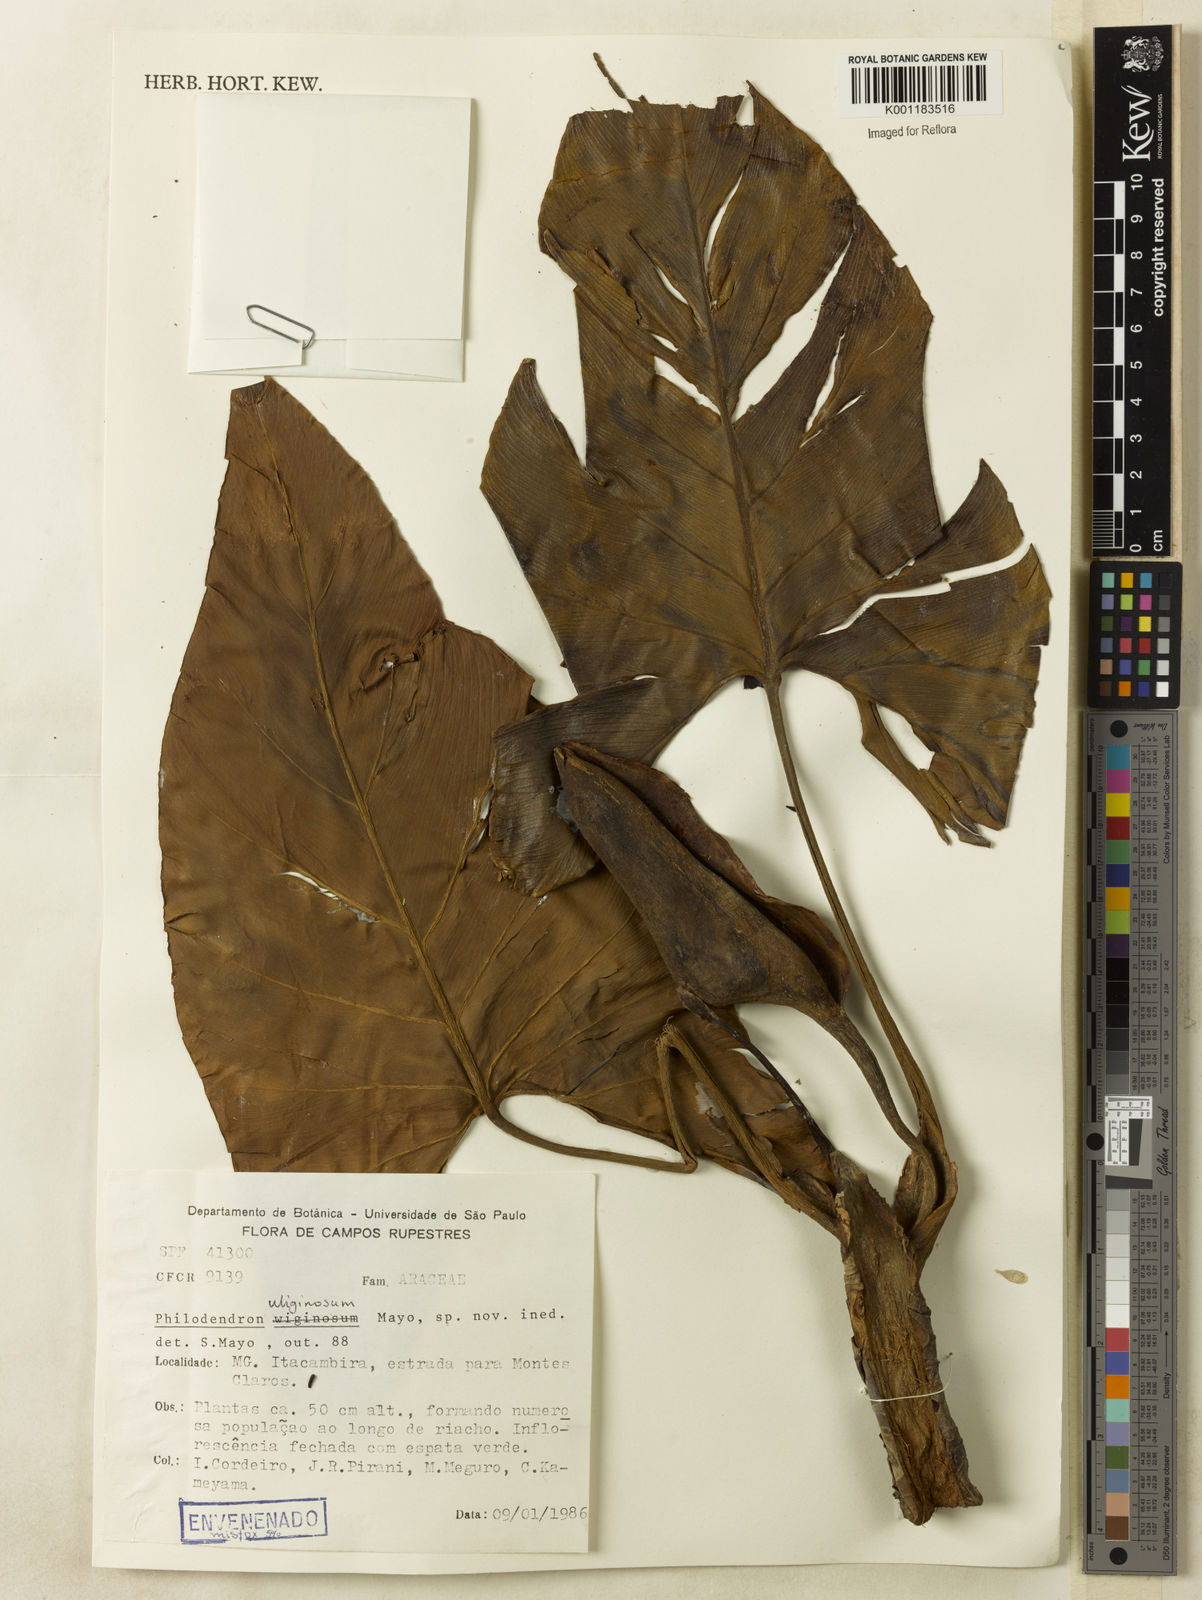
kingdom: Plantae
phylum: Tracheophyta
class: Liliopsida
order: Alismatales
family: Araceae
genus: Thaumatophyllum
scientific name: Thaumatophyllum uliginosum
